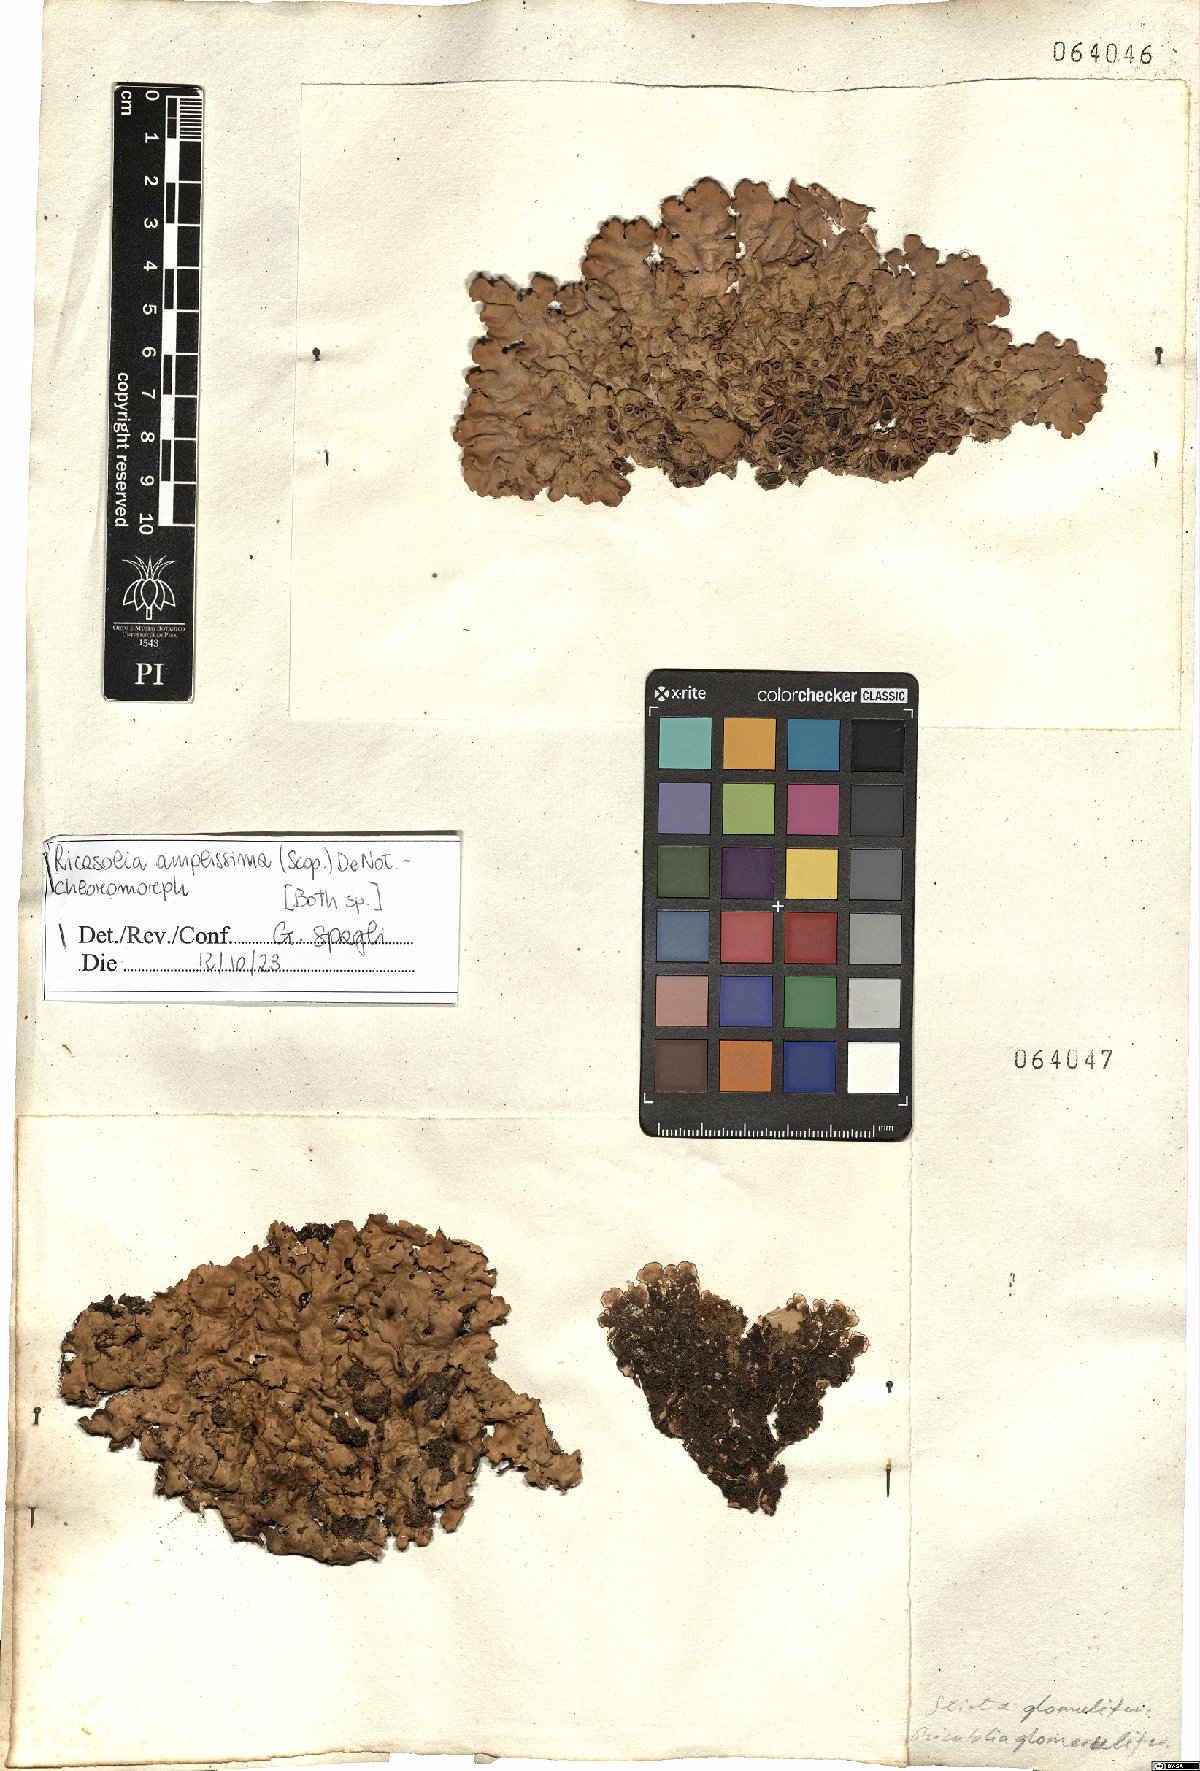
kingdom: Fungi
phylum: Ascomycota
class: Lecanoromycetes
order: Peltigerales
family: Lobariaceae
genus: Ricasolia
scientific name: Ricasolia amplissima
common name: Giant candlewax lichen
